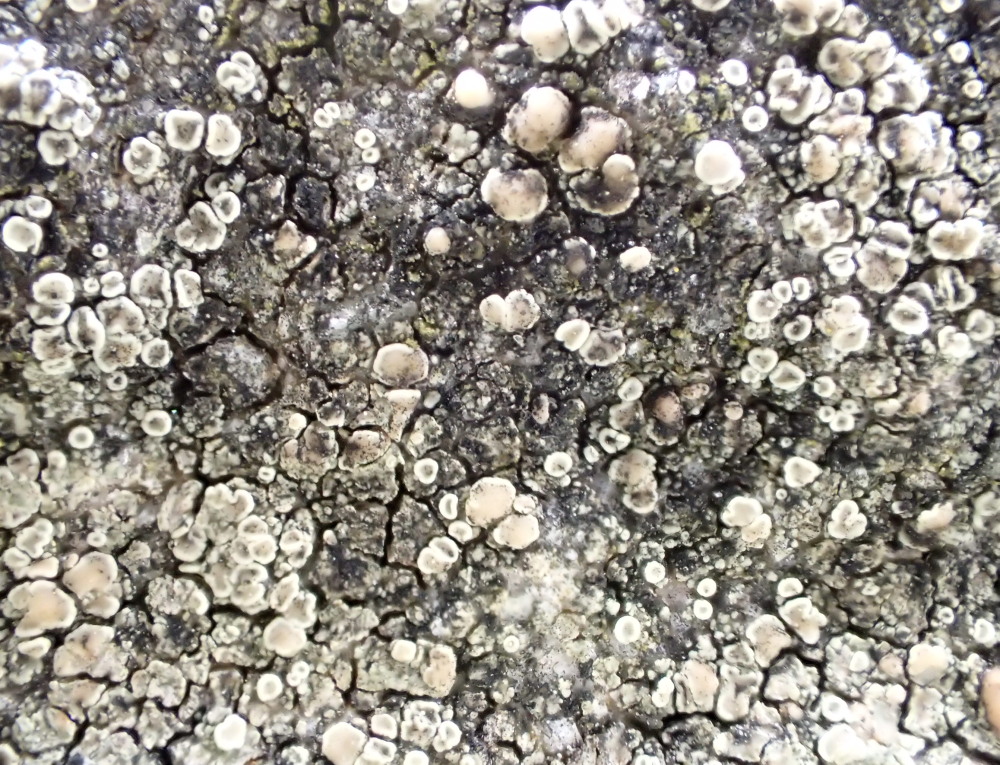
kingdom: Fungi
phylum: Ascomycota
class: Lecanoromycetes
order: Lecanorales
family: Lecanoraceae
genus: Lecanora
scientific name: Lecanora polytropa
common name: bleggrøn kantskivelav
